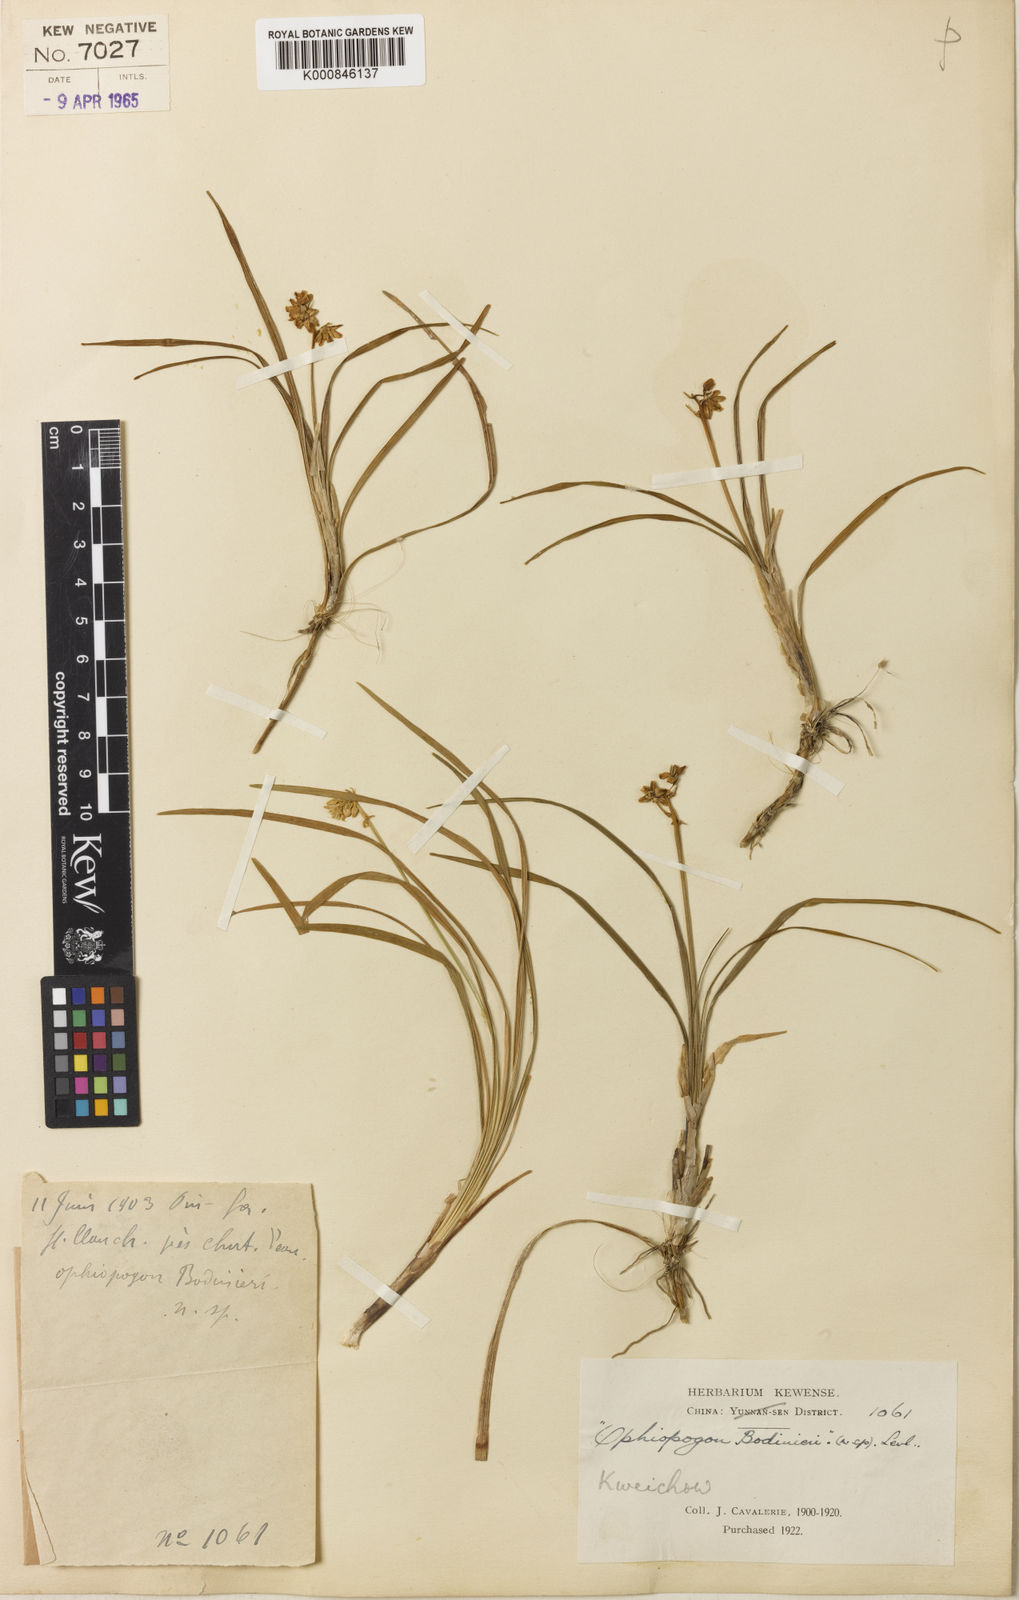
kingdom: Plantae
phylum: Tracheophyta
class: Liliopsida
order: Asparagales
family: Asparagaceae
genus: Ophiopogon
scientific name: Ophiopogon
